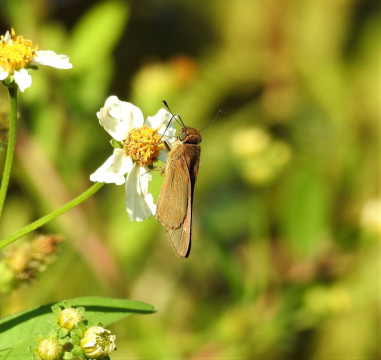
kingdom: Animalia
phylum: Arthropoda
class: Insecta
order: Lepidoptera
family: Hesperiidae
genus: Panoquina
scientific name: Panoquina ocola
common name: Ocola Skipper
